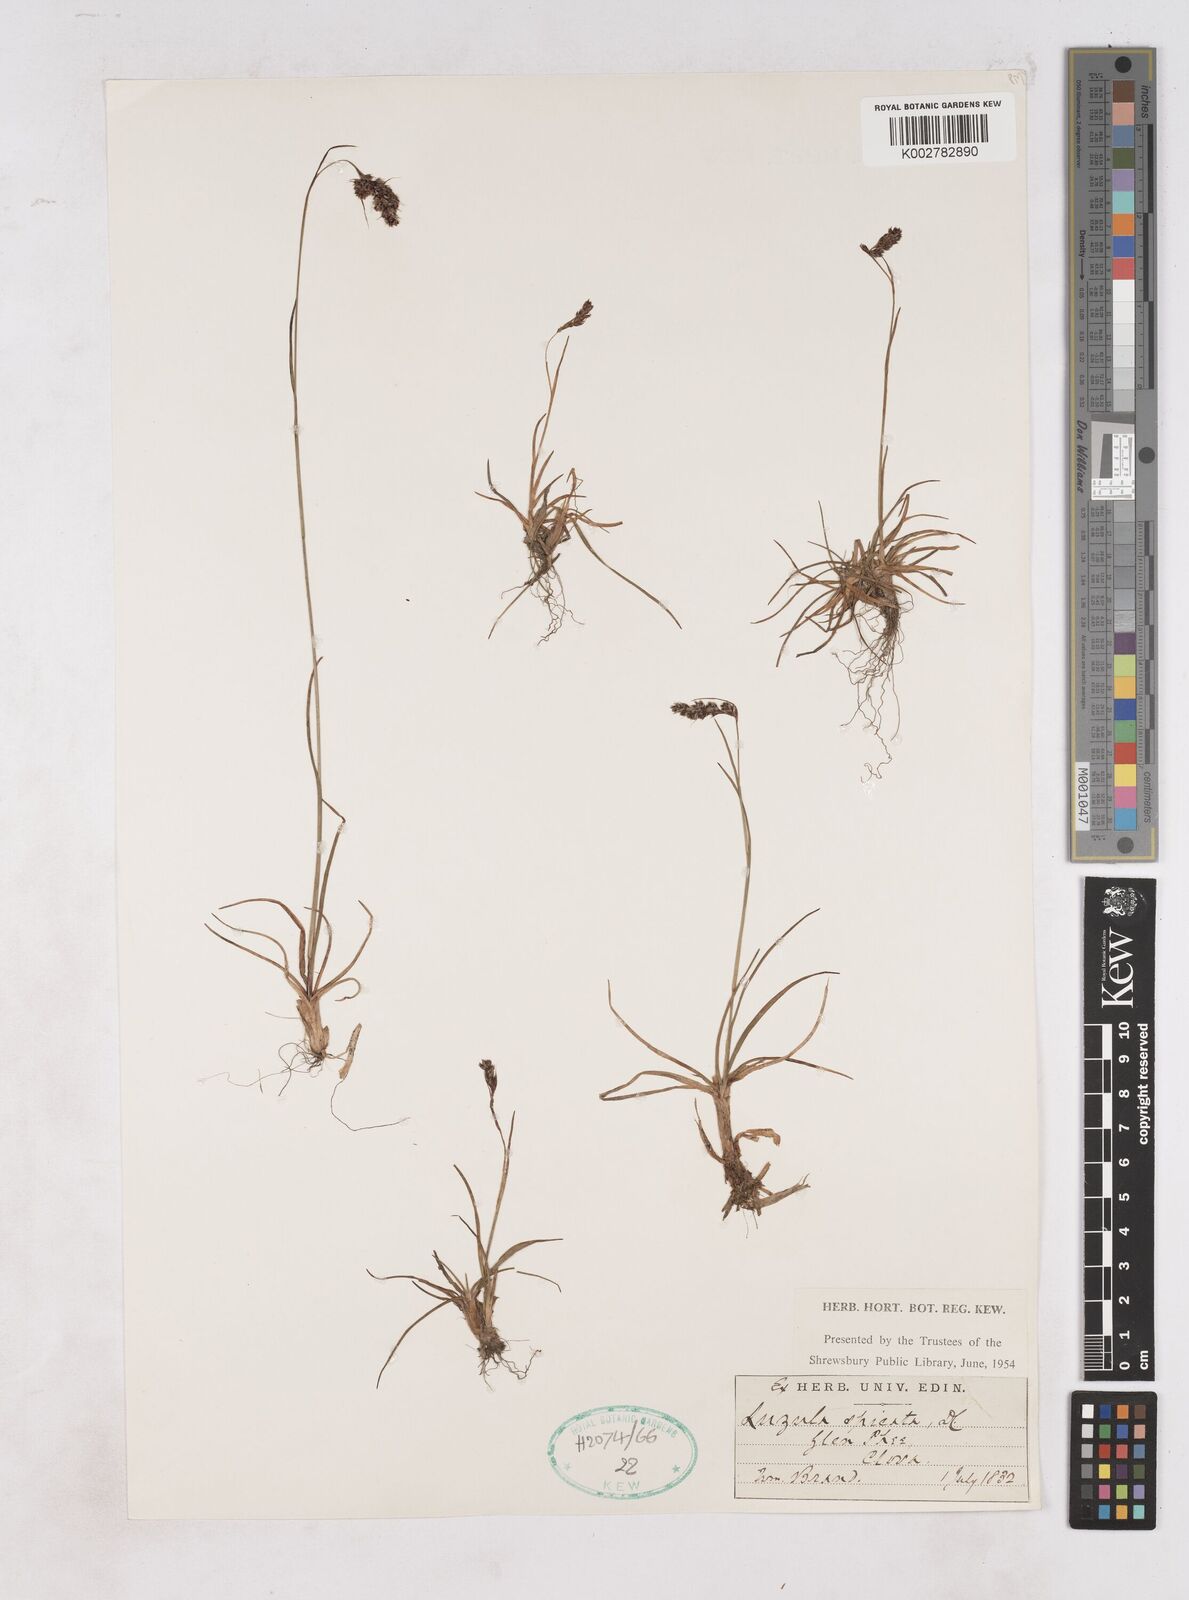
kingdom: Plantae
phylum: Tracheophyta
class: Liliopsida
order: Poales
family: Juncaceae
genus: Luzula
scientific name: Luzula campestris
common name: Field wood-rush
